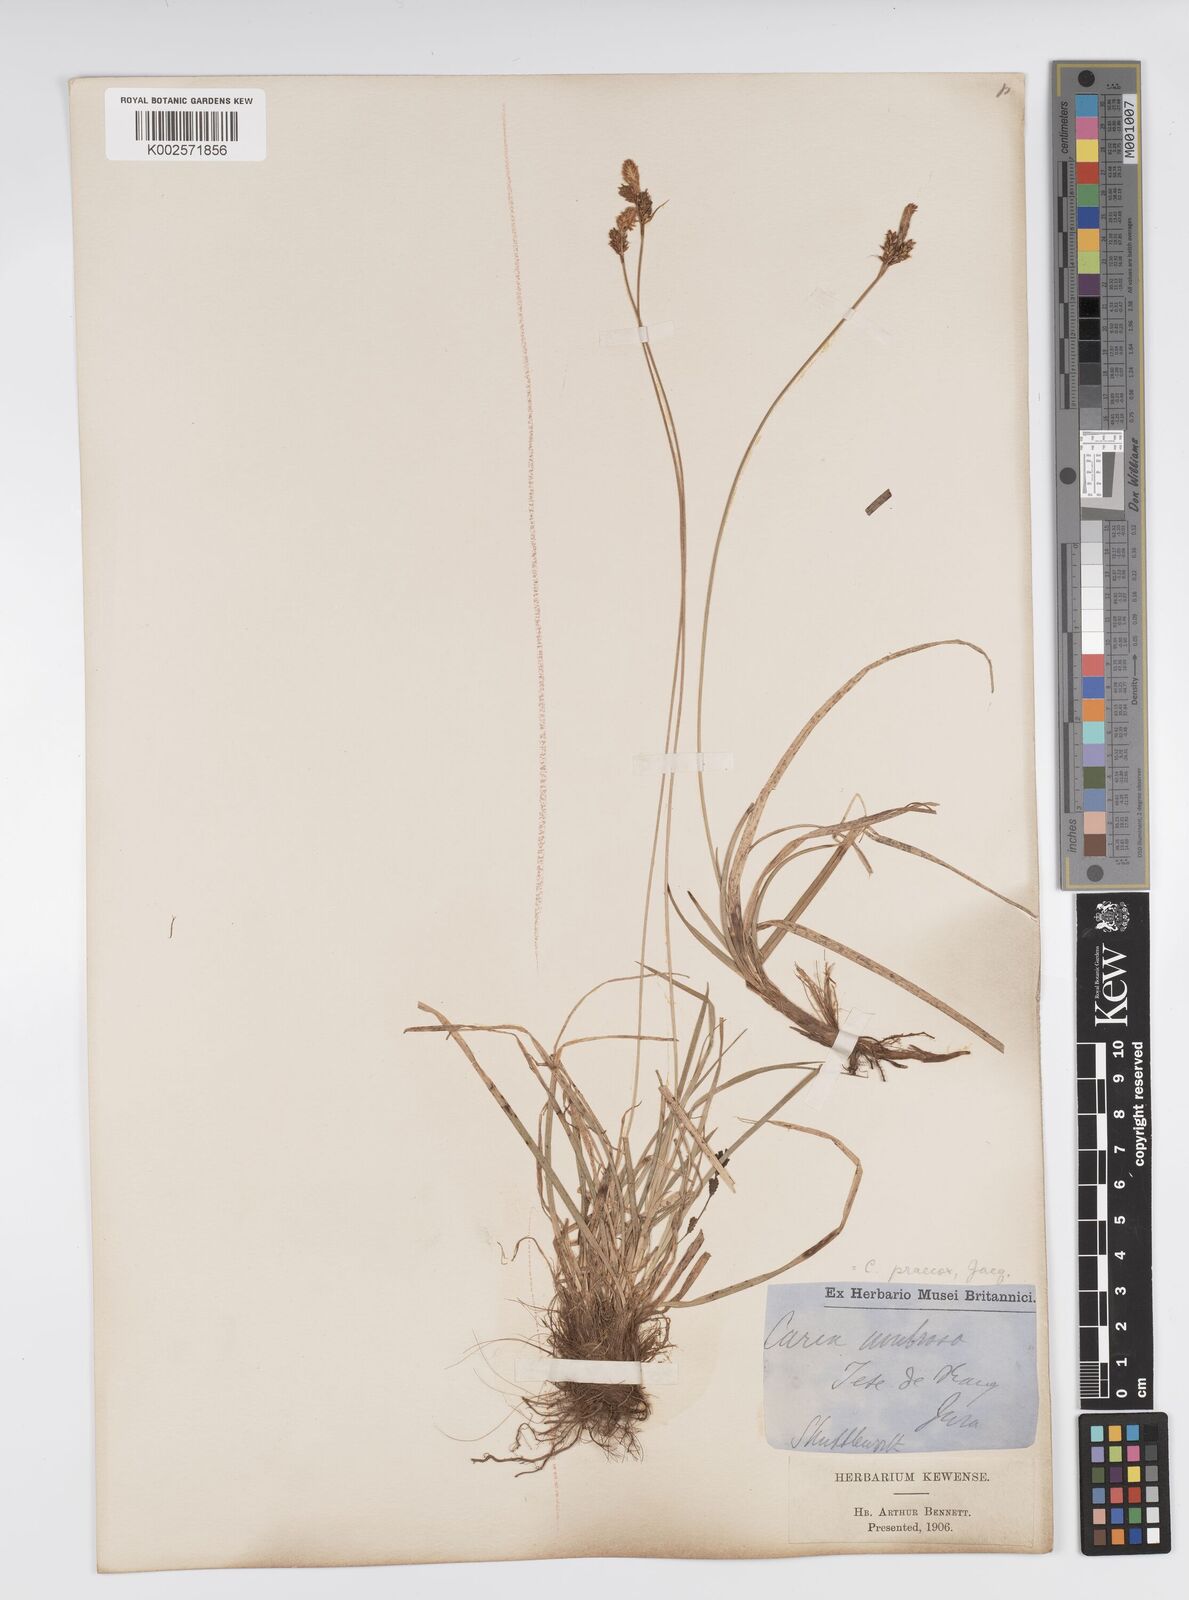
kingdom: Plantae
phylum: Tracheophyta
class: Liliopsida
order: Poales
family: Cyperaceae
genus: Carex
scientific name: Carex umbrosa
